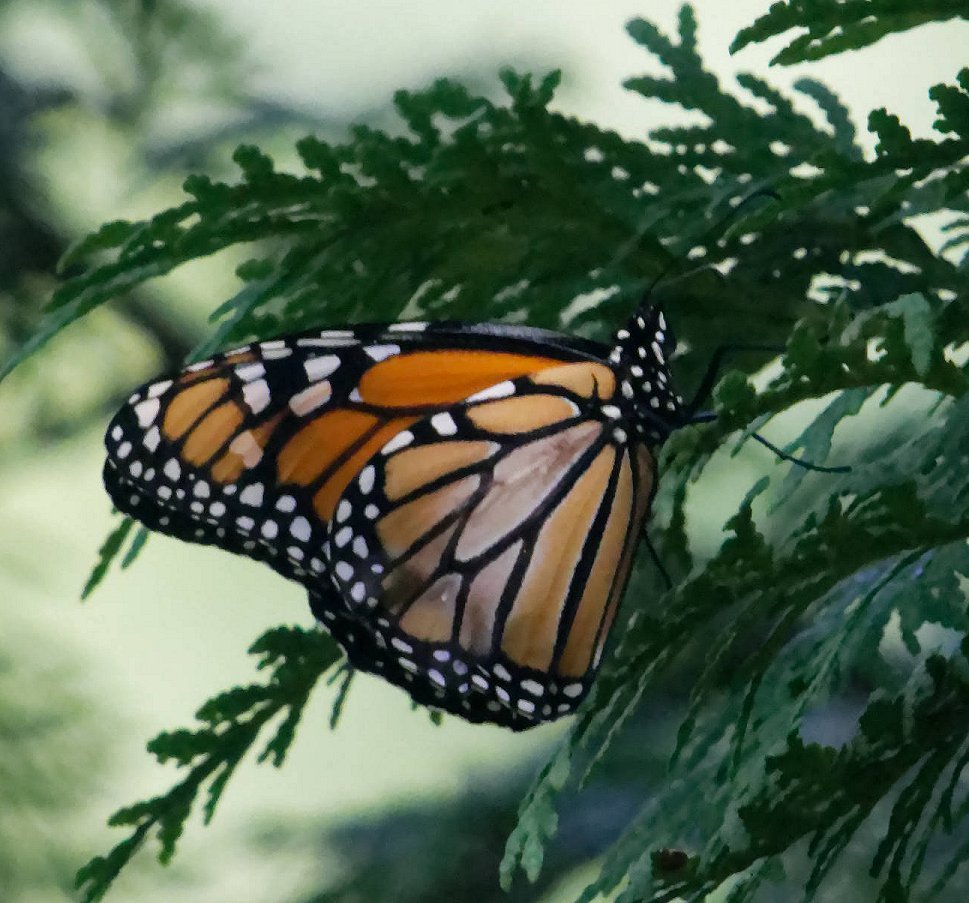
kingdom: Animalia
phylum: Arthropoda
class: Insecta
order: Lepidoptera
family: Nymphalidae
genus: Danaus
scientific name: Danaus plexippus
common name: Monarch
